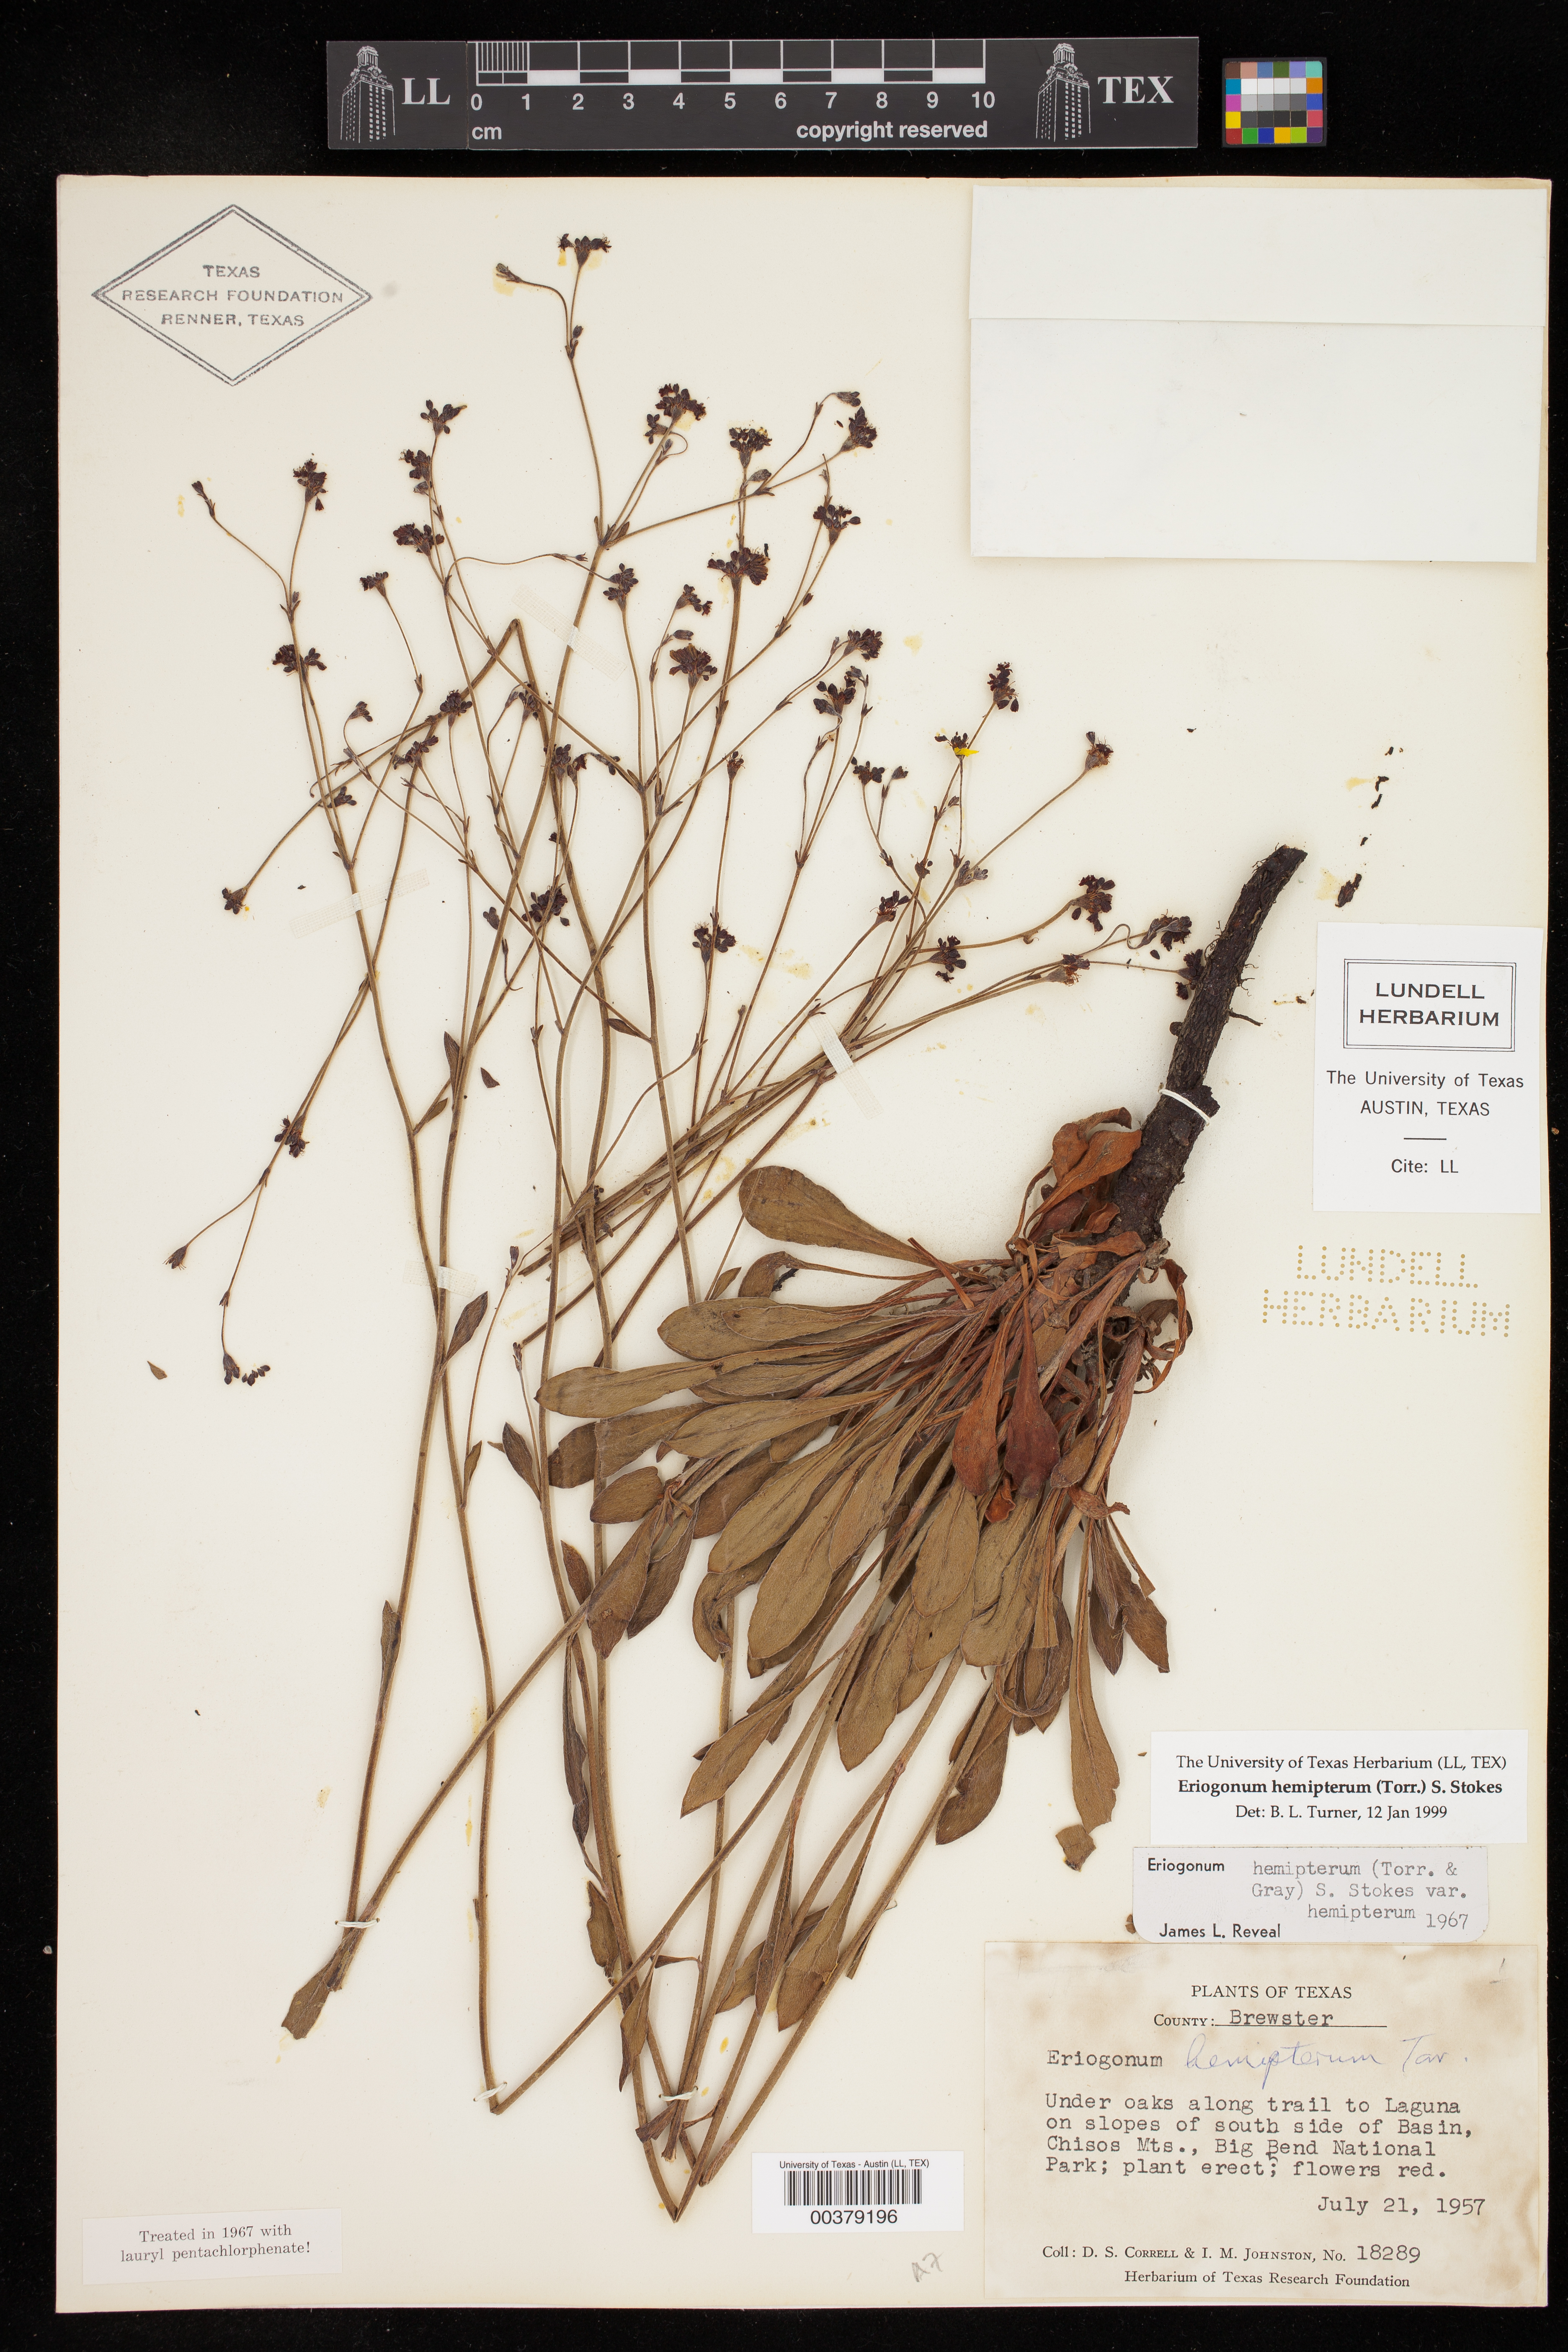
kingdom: Plantae
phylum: Tracheophyta
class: Magnoliopsida
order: Caryophyllales
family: Polygonaceae
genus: Eriogonum
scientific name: Eriogonum hemipterum
